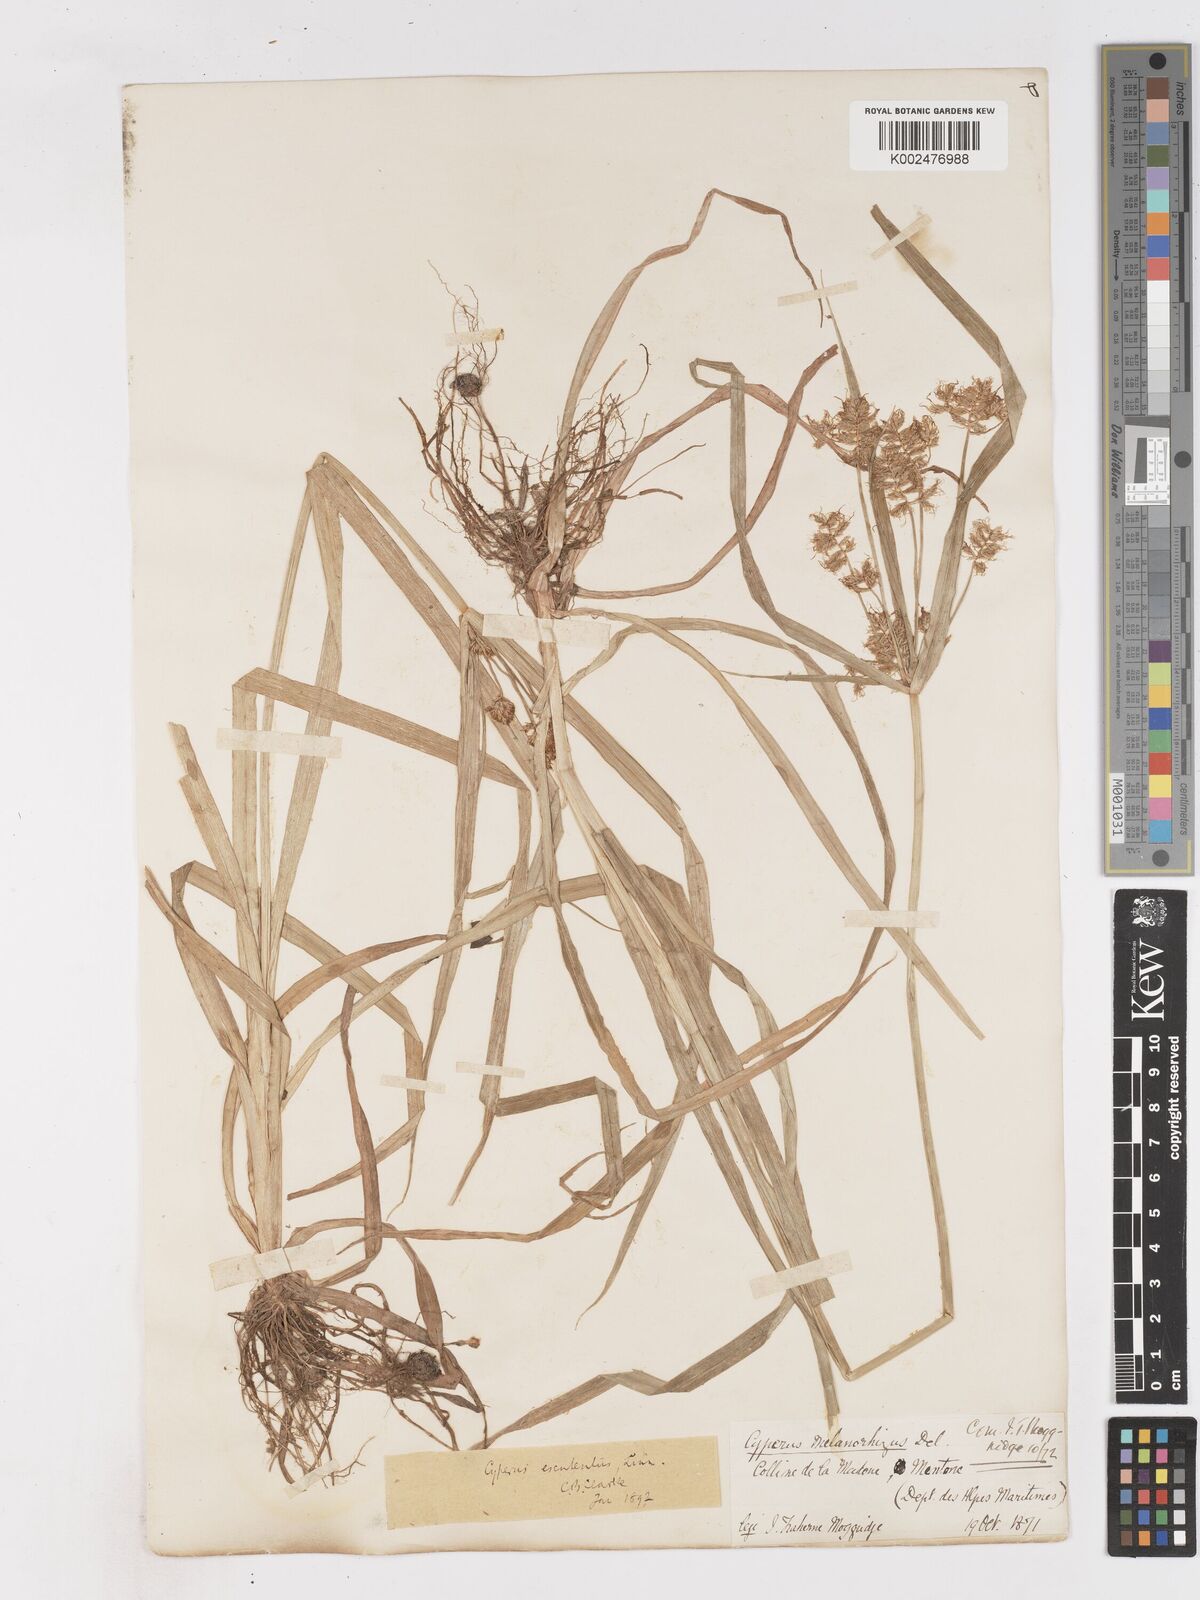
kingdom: Plantae
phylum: Tracheophyta
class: Liliopsida
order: Poales
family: Cyperaceae
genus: Cyperus
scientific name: Cyperus esculentus
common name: Yellow nutsedge
